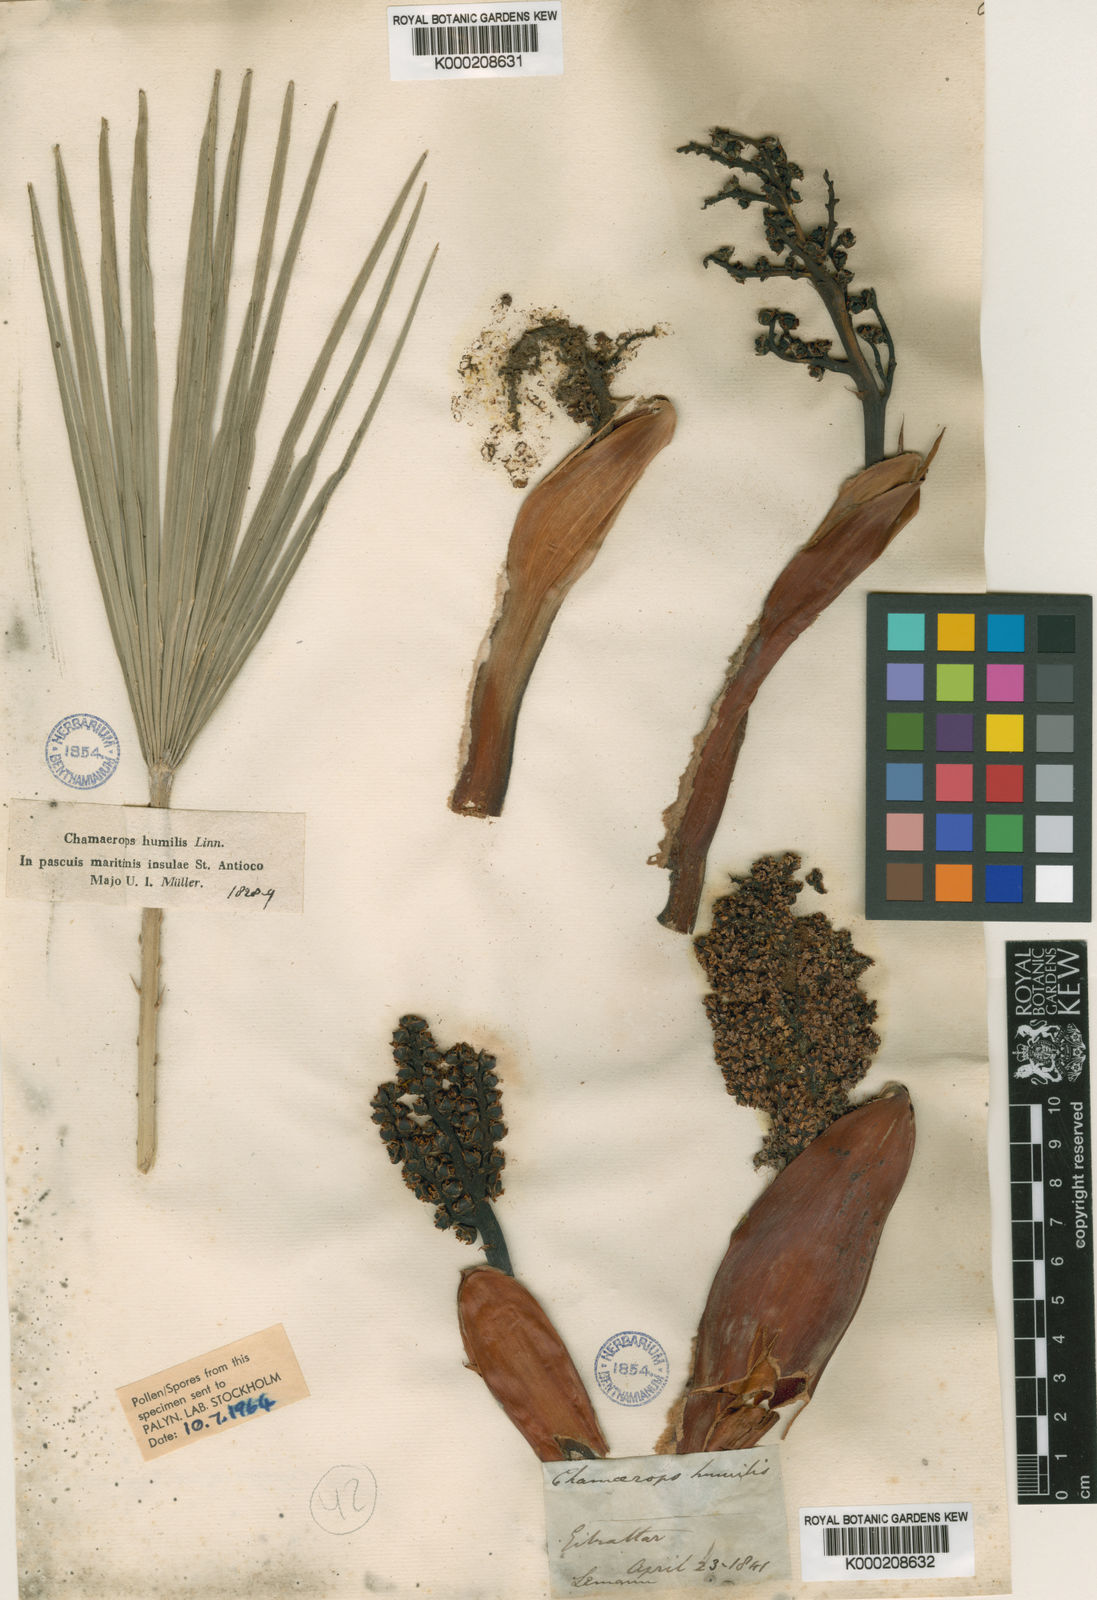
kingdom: Plantae
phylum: Tracheophyta
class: Liliopsida
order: Arecales
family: Arecaceae
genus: Chamaerops
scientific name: Chamaerops humilis
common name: Dwarf fan palm
